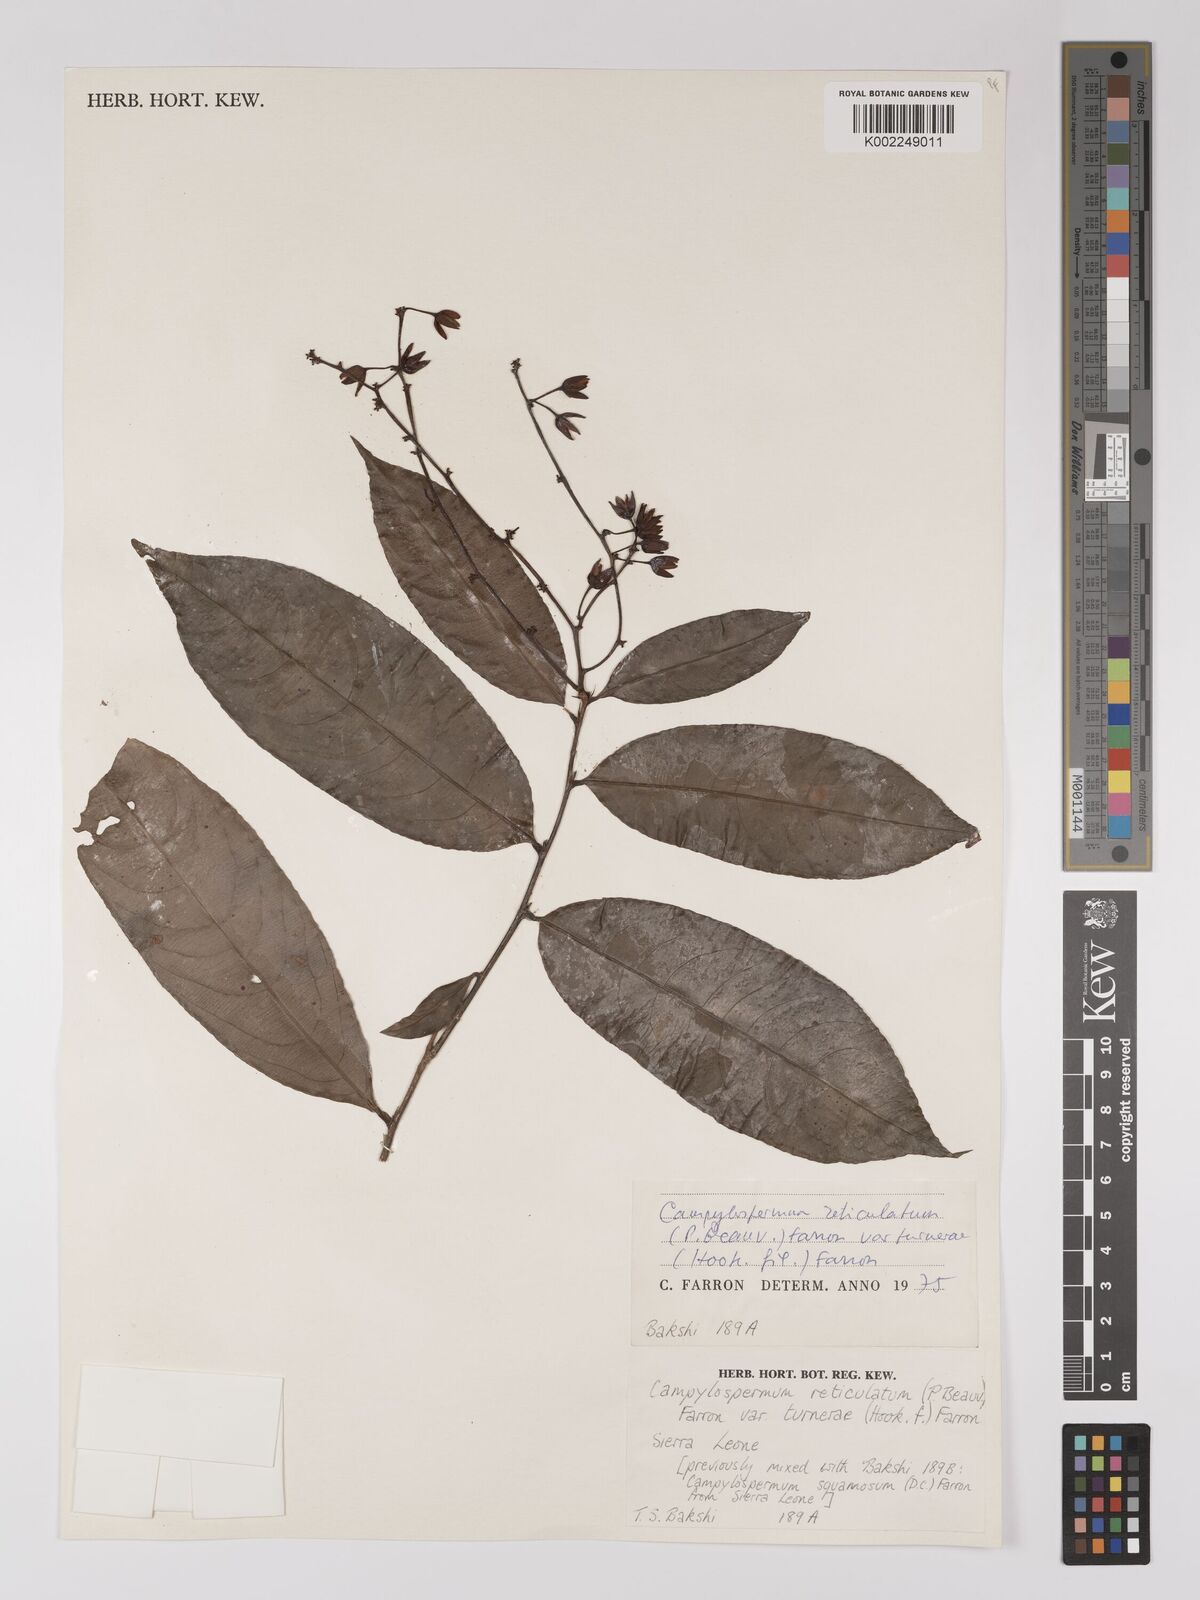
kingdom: Plantae
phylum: Tracheophyta
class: Magnoliopsida
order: Malpighiales
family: Ochnaceae
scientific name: Ochnaceae
